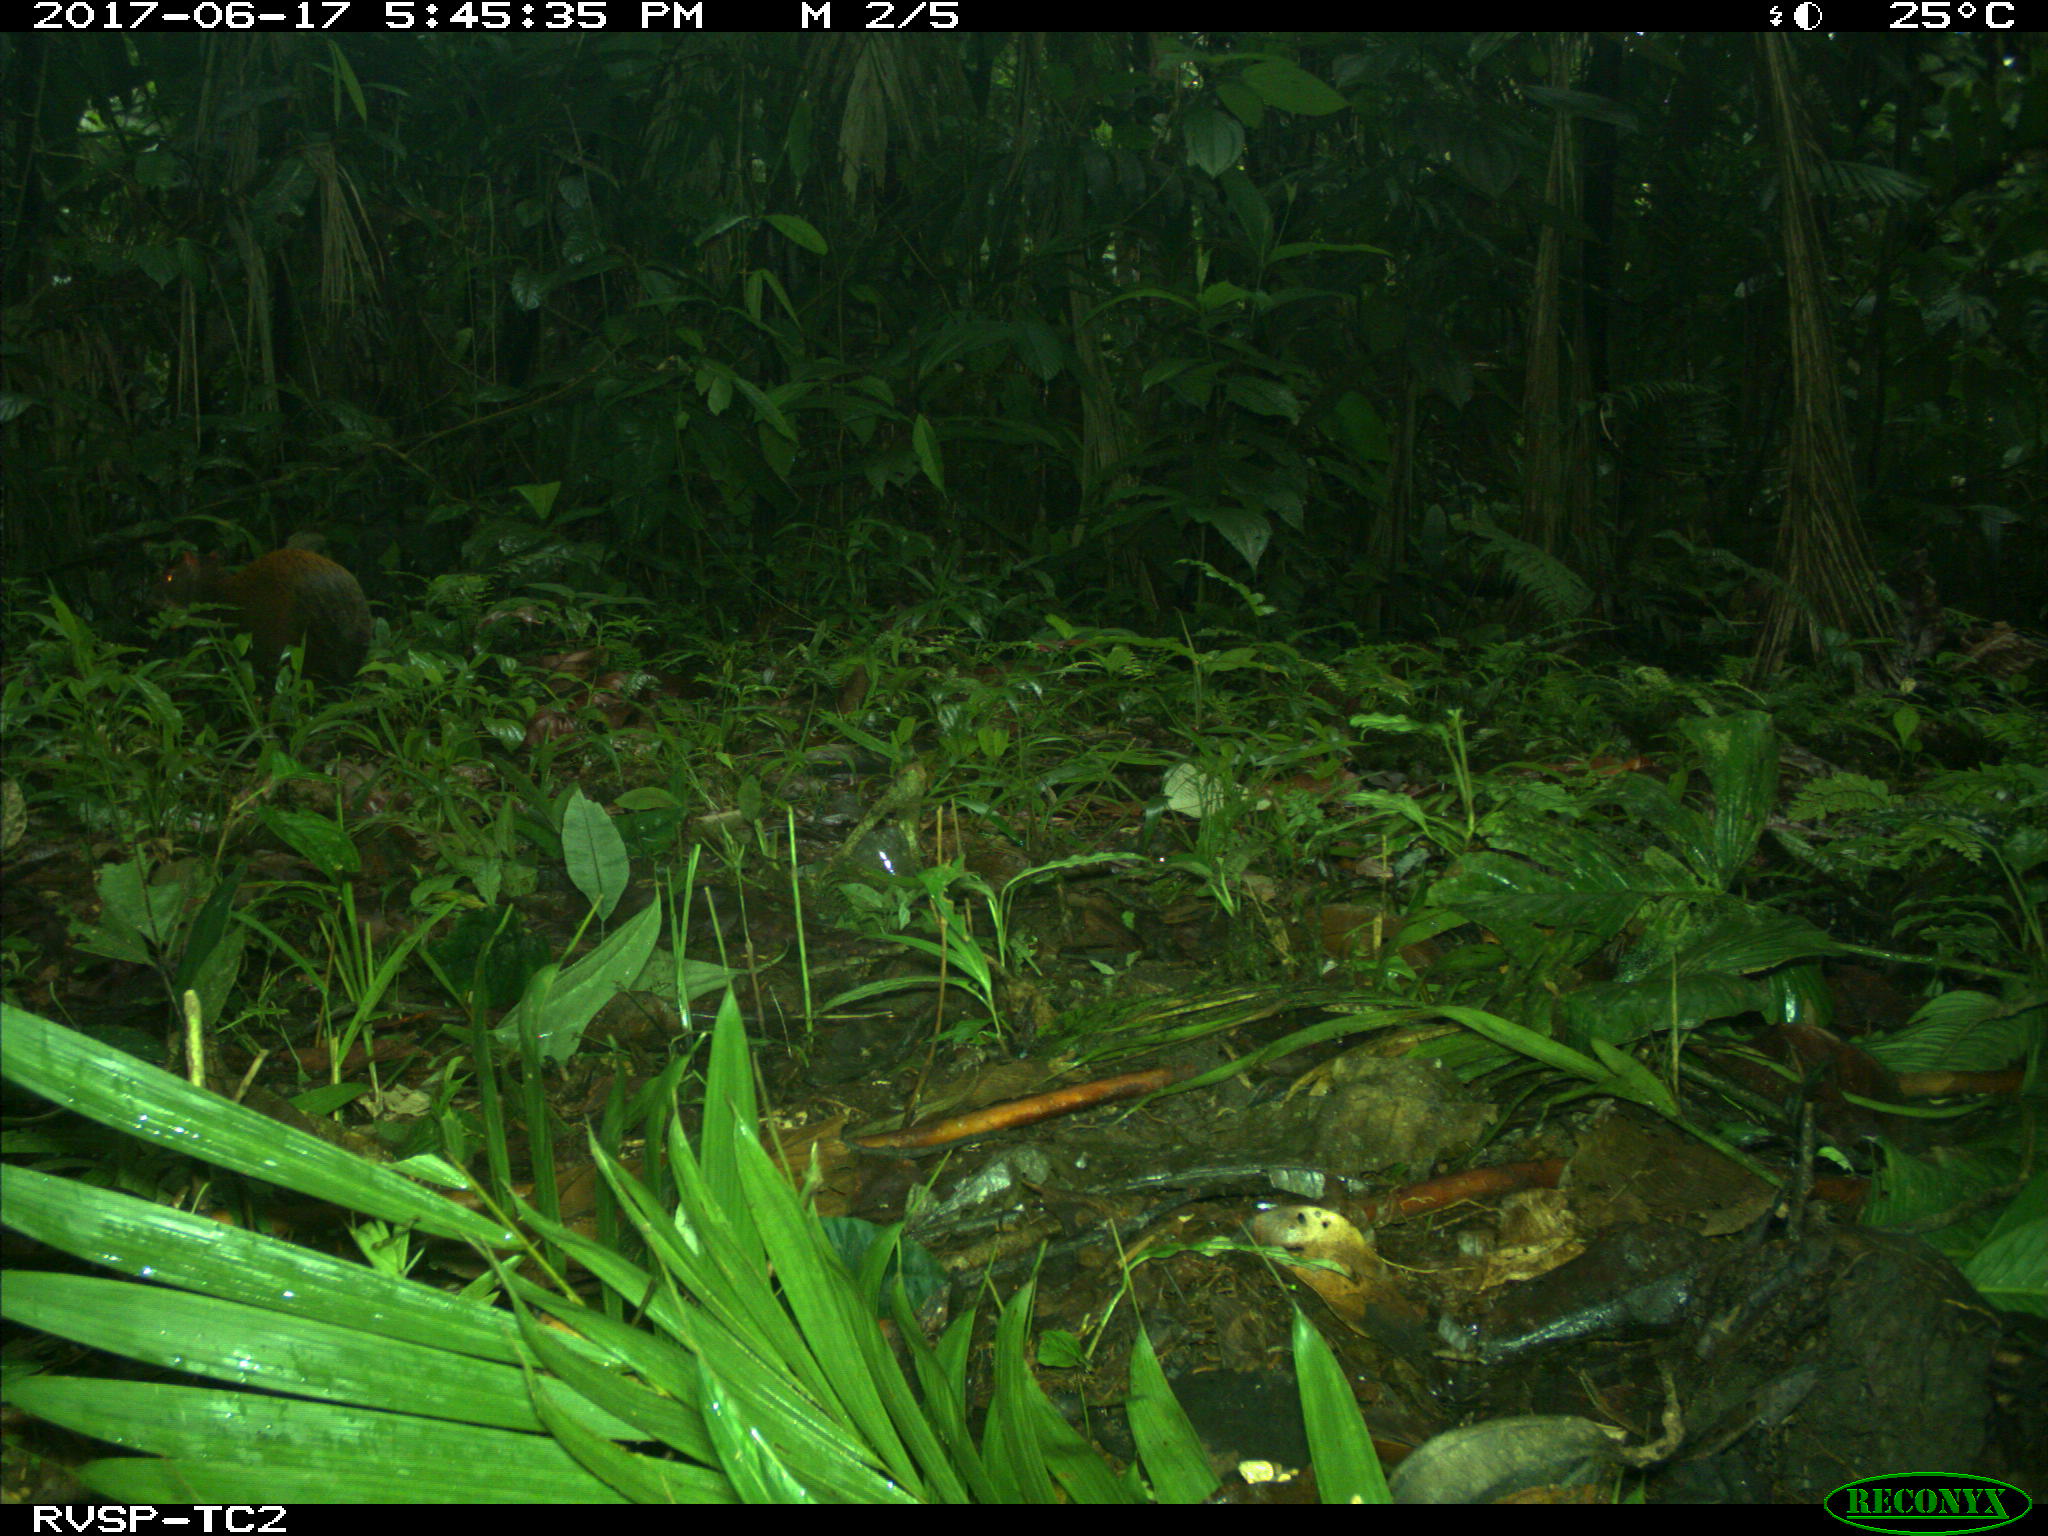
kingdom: Animalia
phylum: Chordata
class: Mammalia
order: Rodentia
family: Dasyproctidae
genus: Dasyprocta
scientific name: Dasyprocta punctata
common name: Central american agouti
